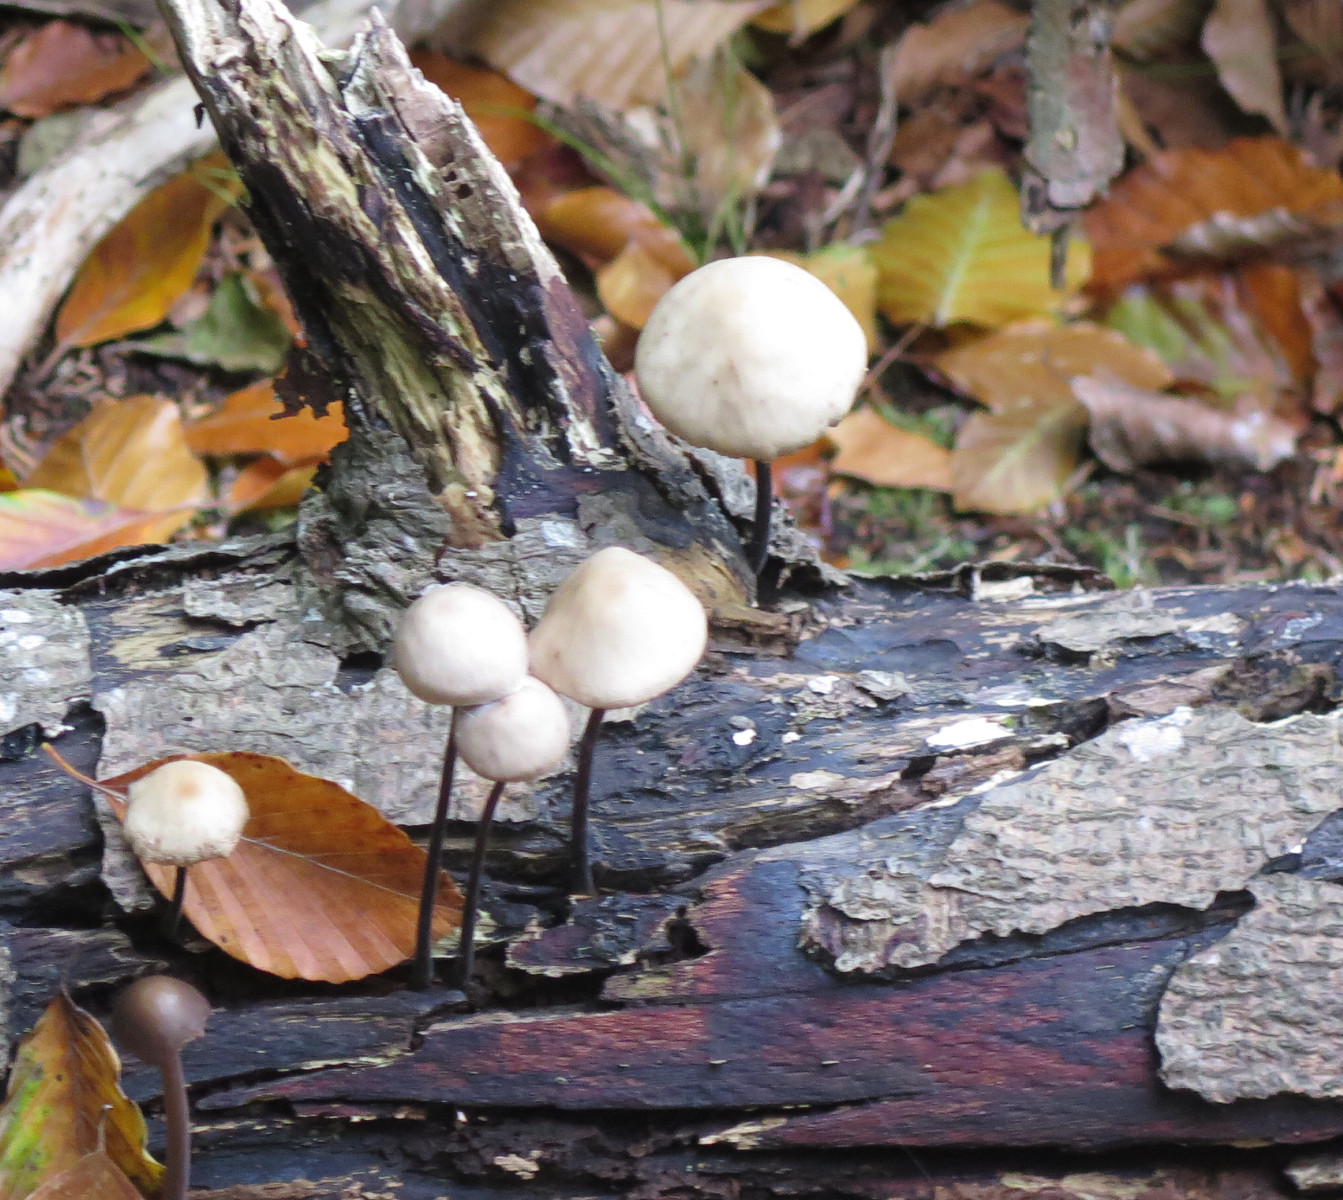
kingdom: Fungi
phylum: Basidiomycota
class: Agaricomycetes
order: Agaricales
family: Omphalotaceae
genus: Mycetinis
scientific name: Mycetinis alliaceus
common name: stor løghat
